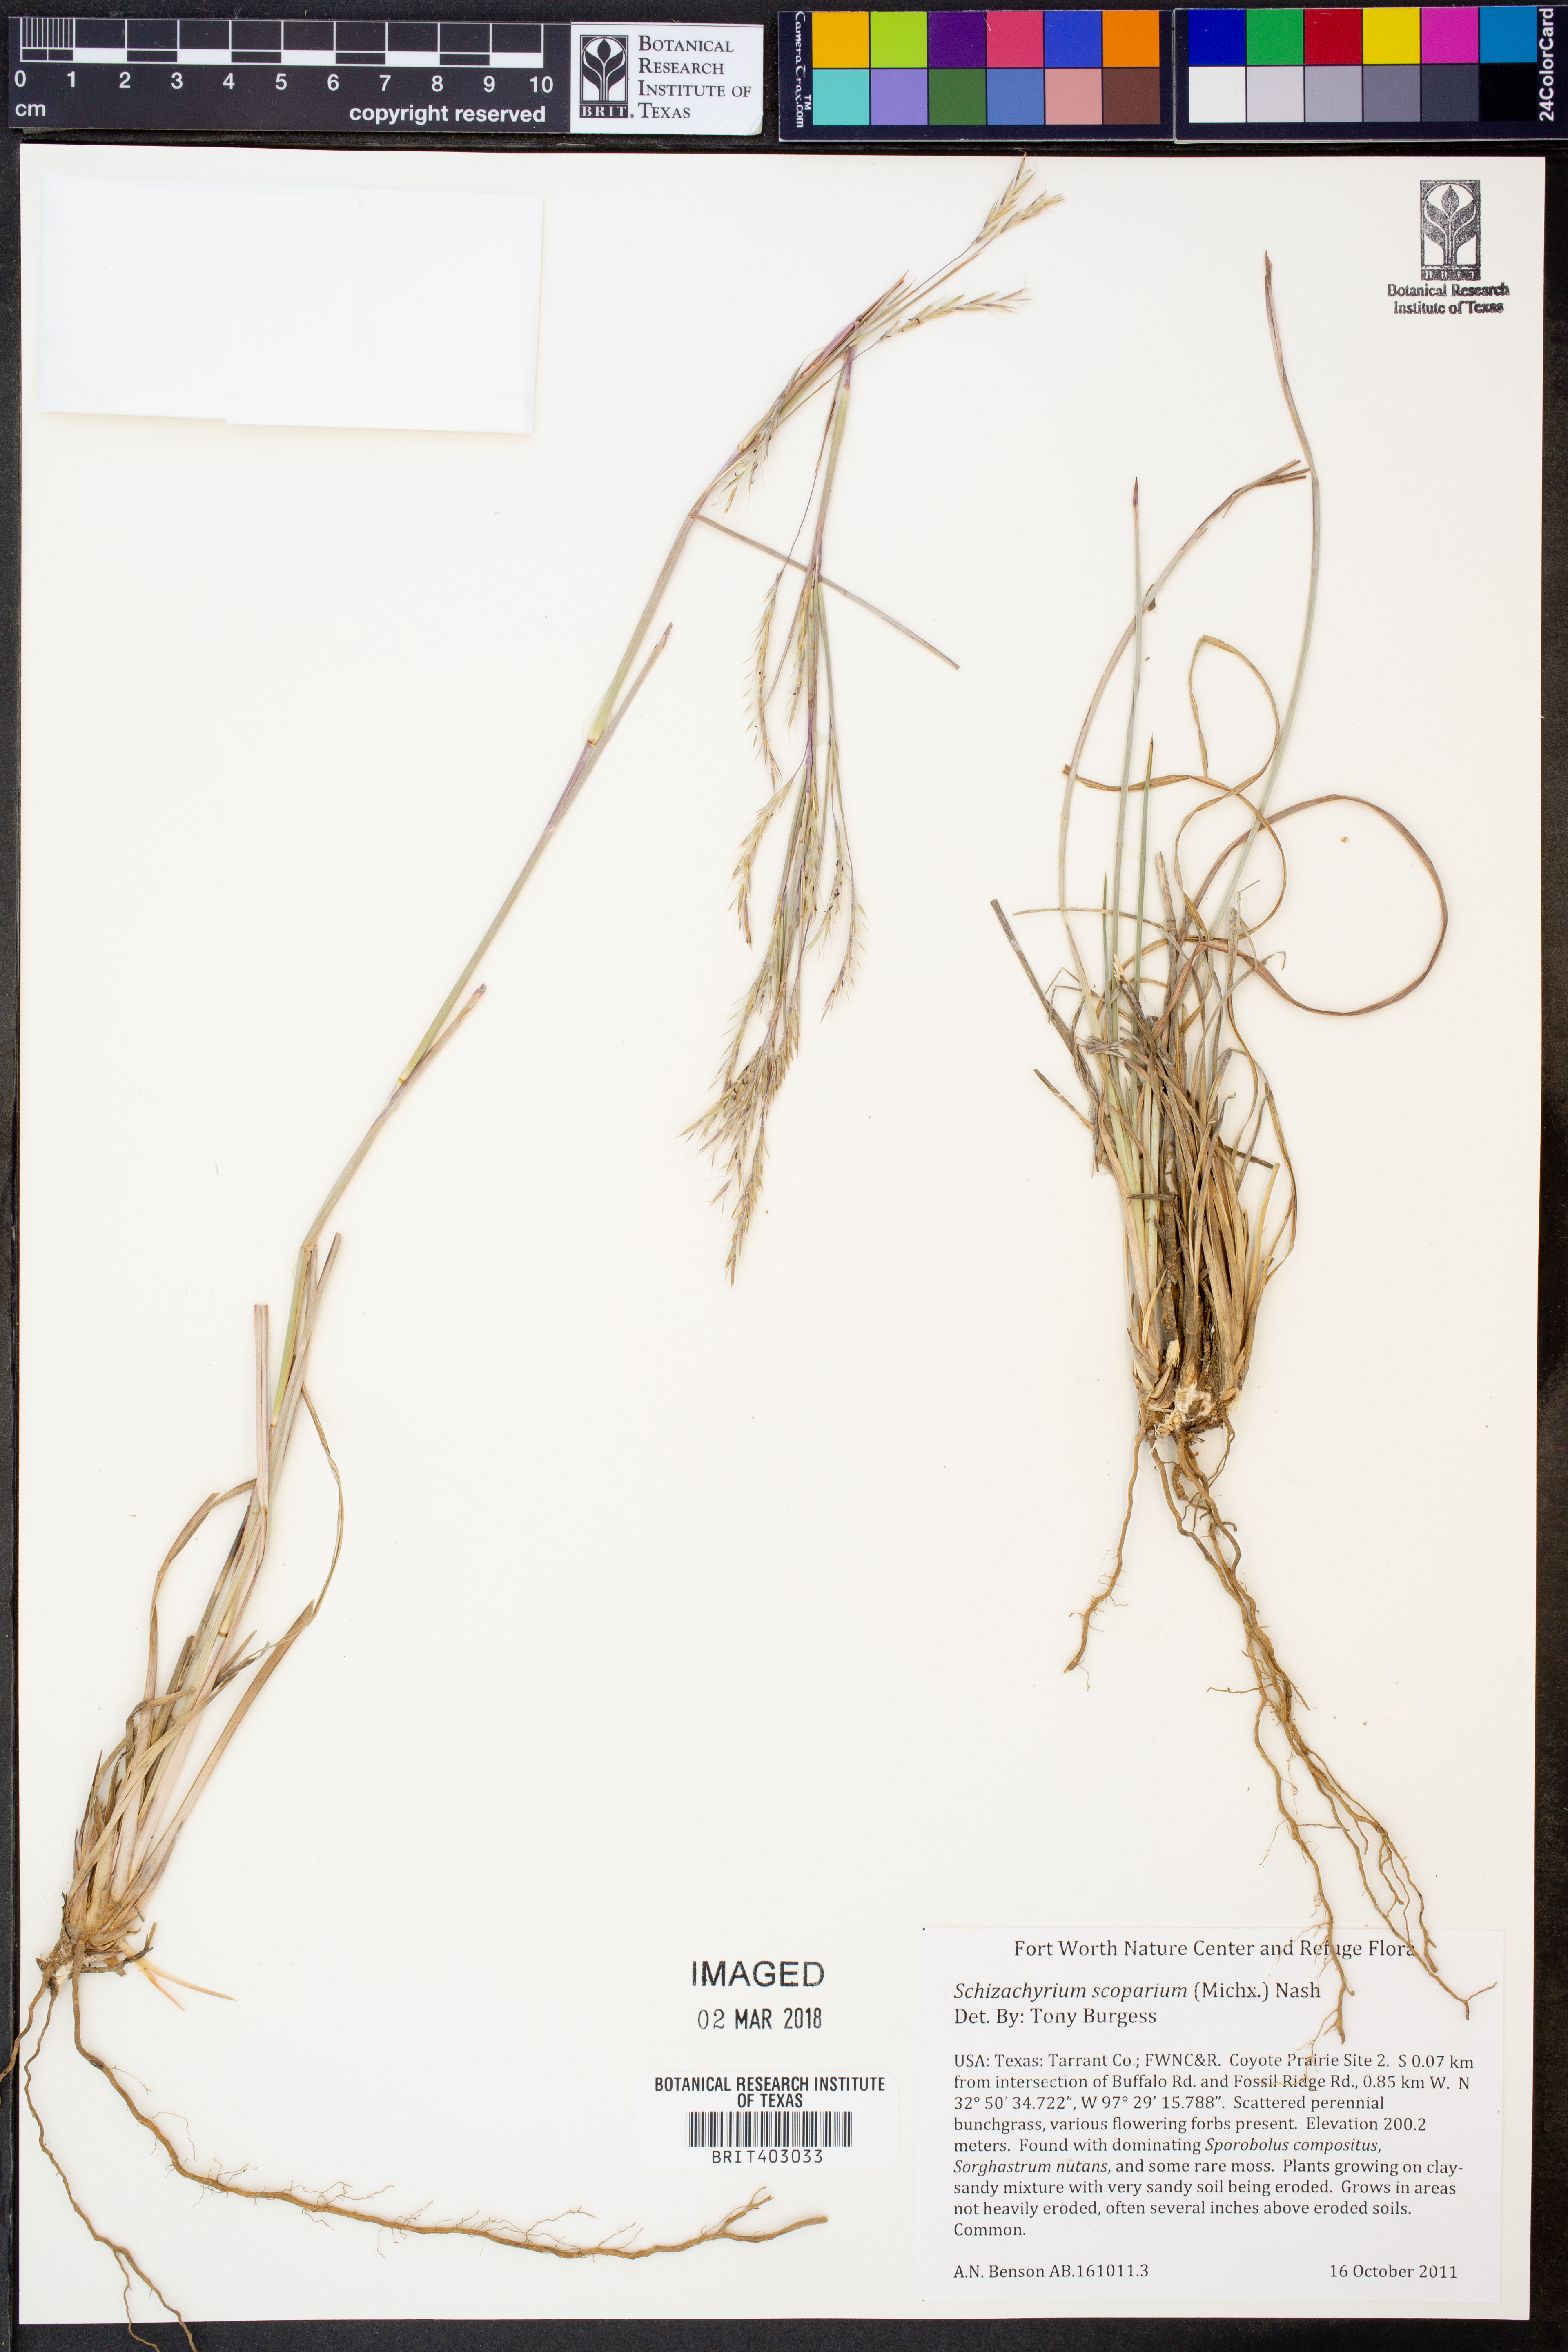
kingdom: Plantae
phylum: Tracheophyta
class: Liliopsida
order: Poales
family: Poaceae
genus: Schizachyrium
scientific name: Schizachyrium scoparium
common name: Little bluestem
